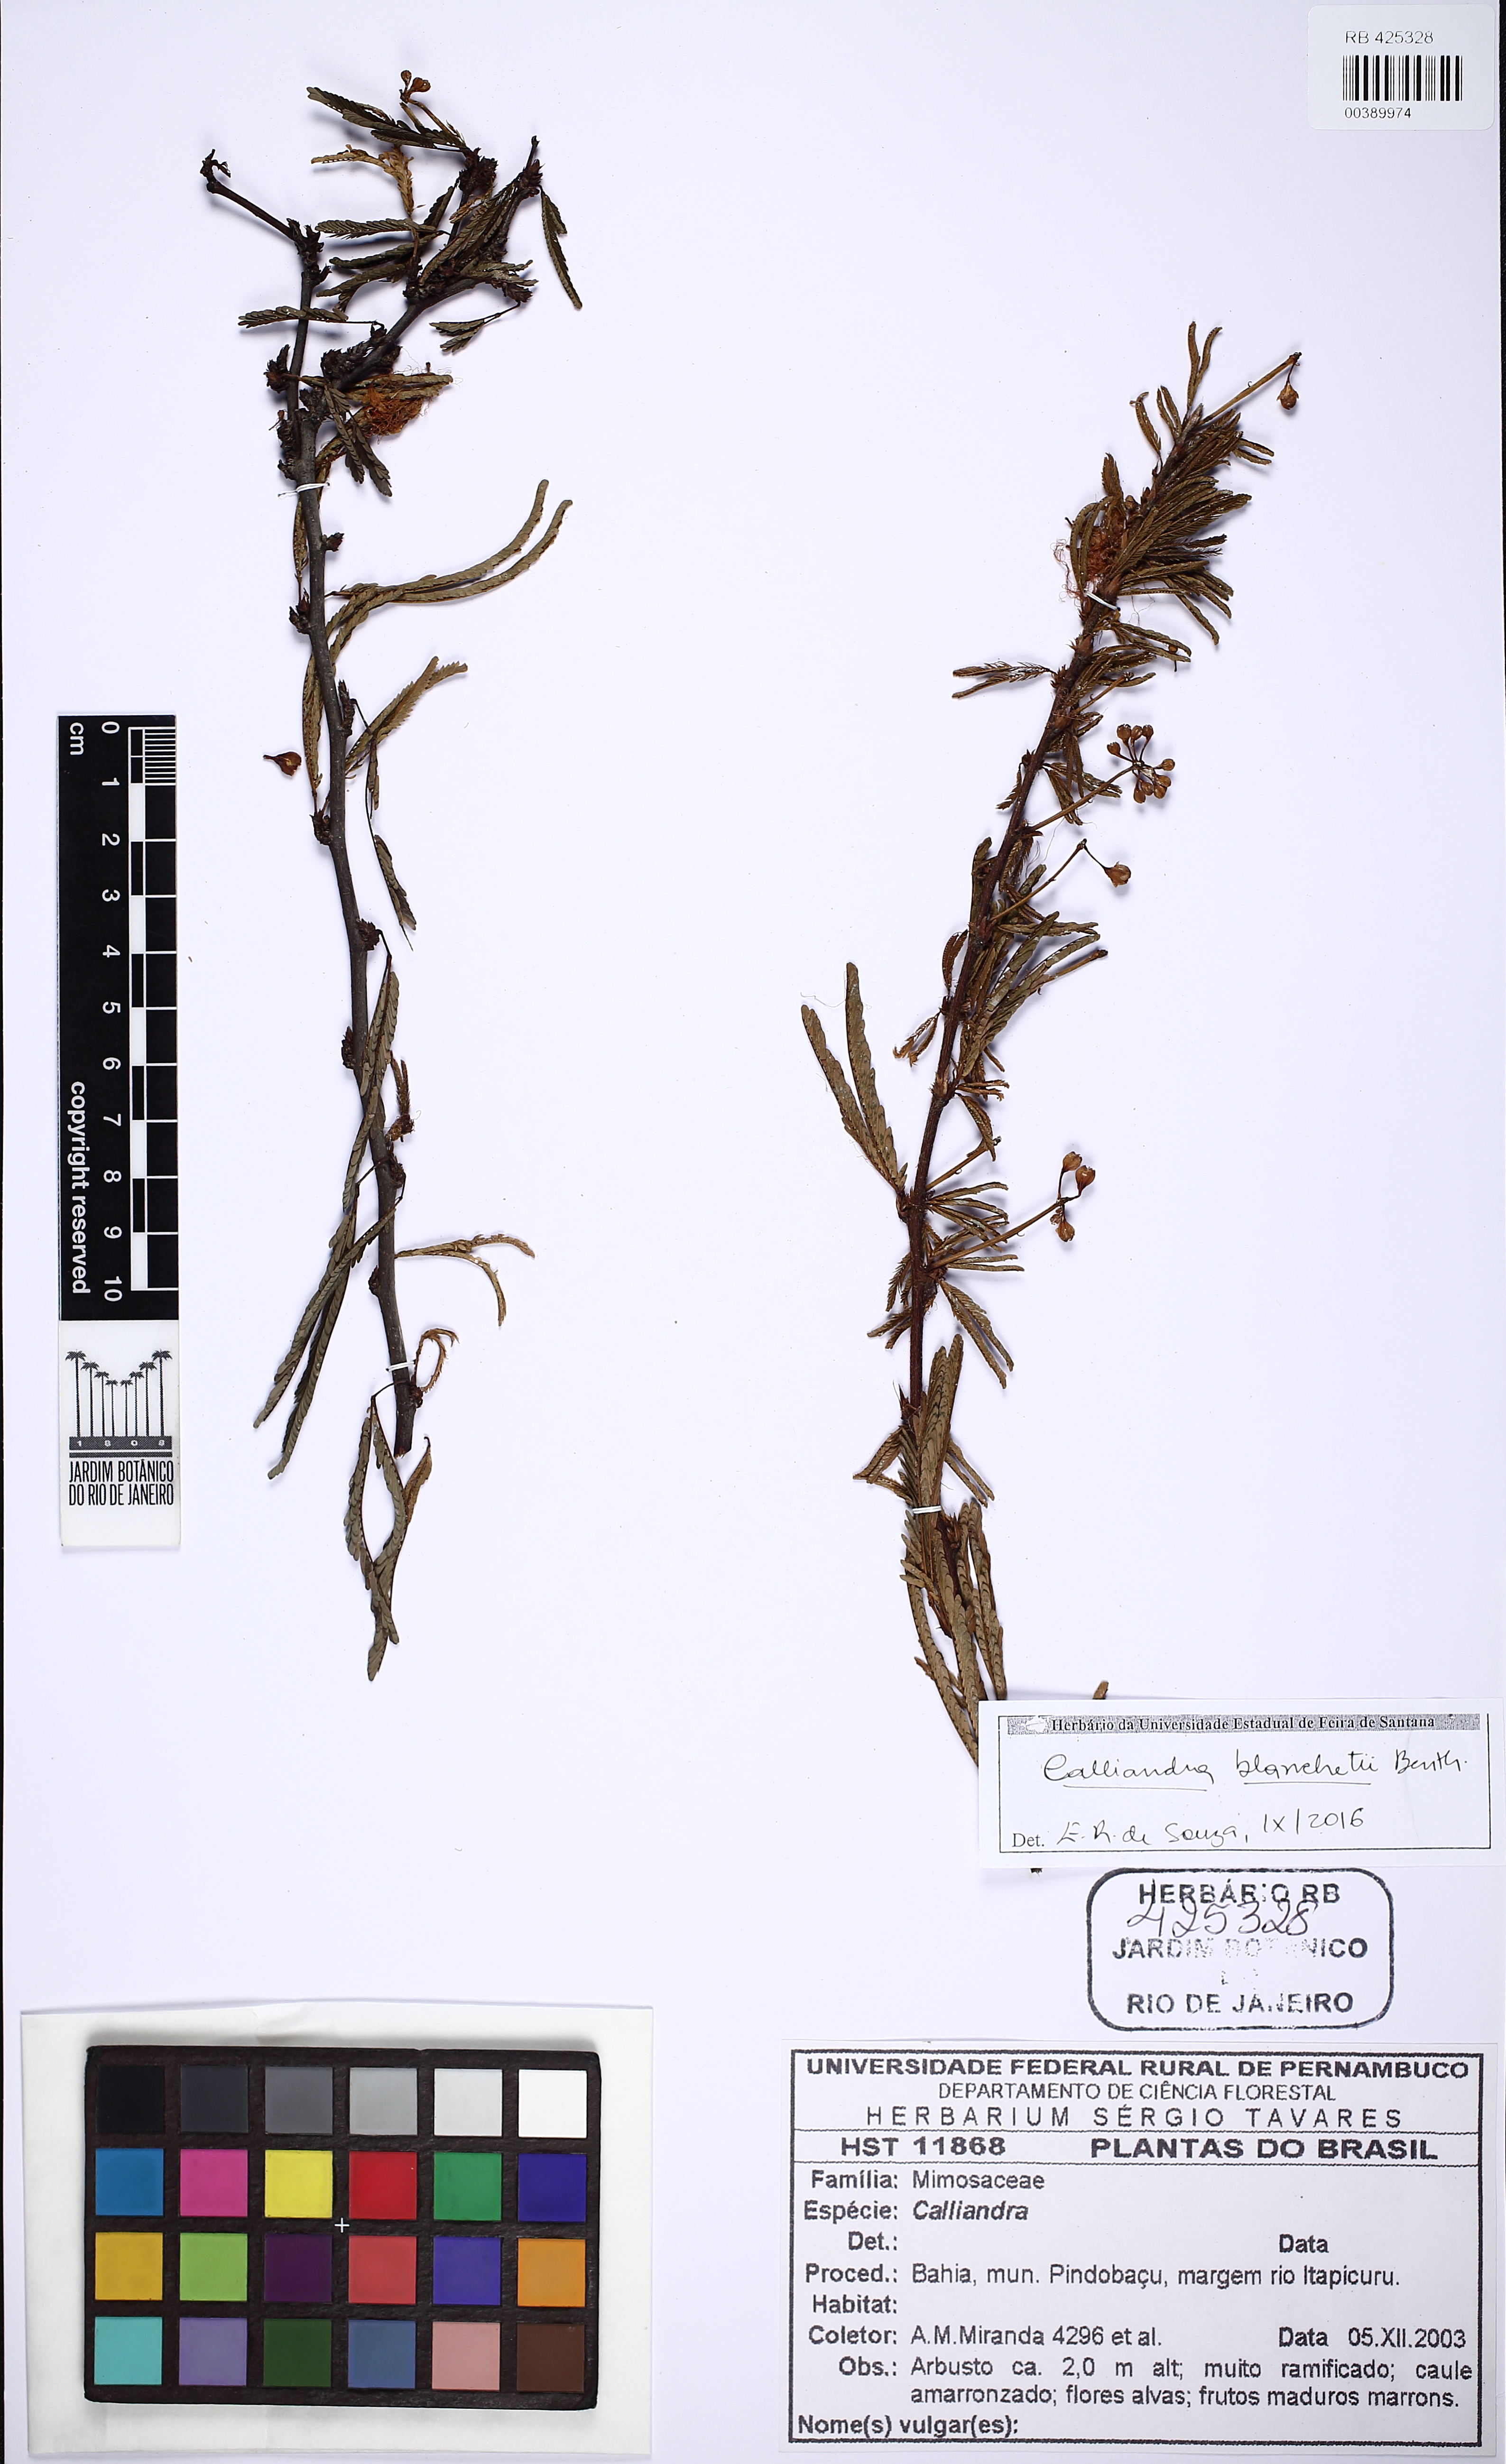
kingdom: Plantae
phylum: Tracheophyta
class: Magnoliopsida
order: Fabales
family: Fabaceae
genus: Calliandra
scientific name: Calliandra blanchetii
